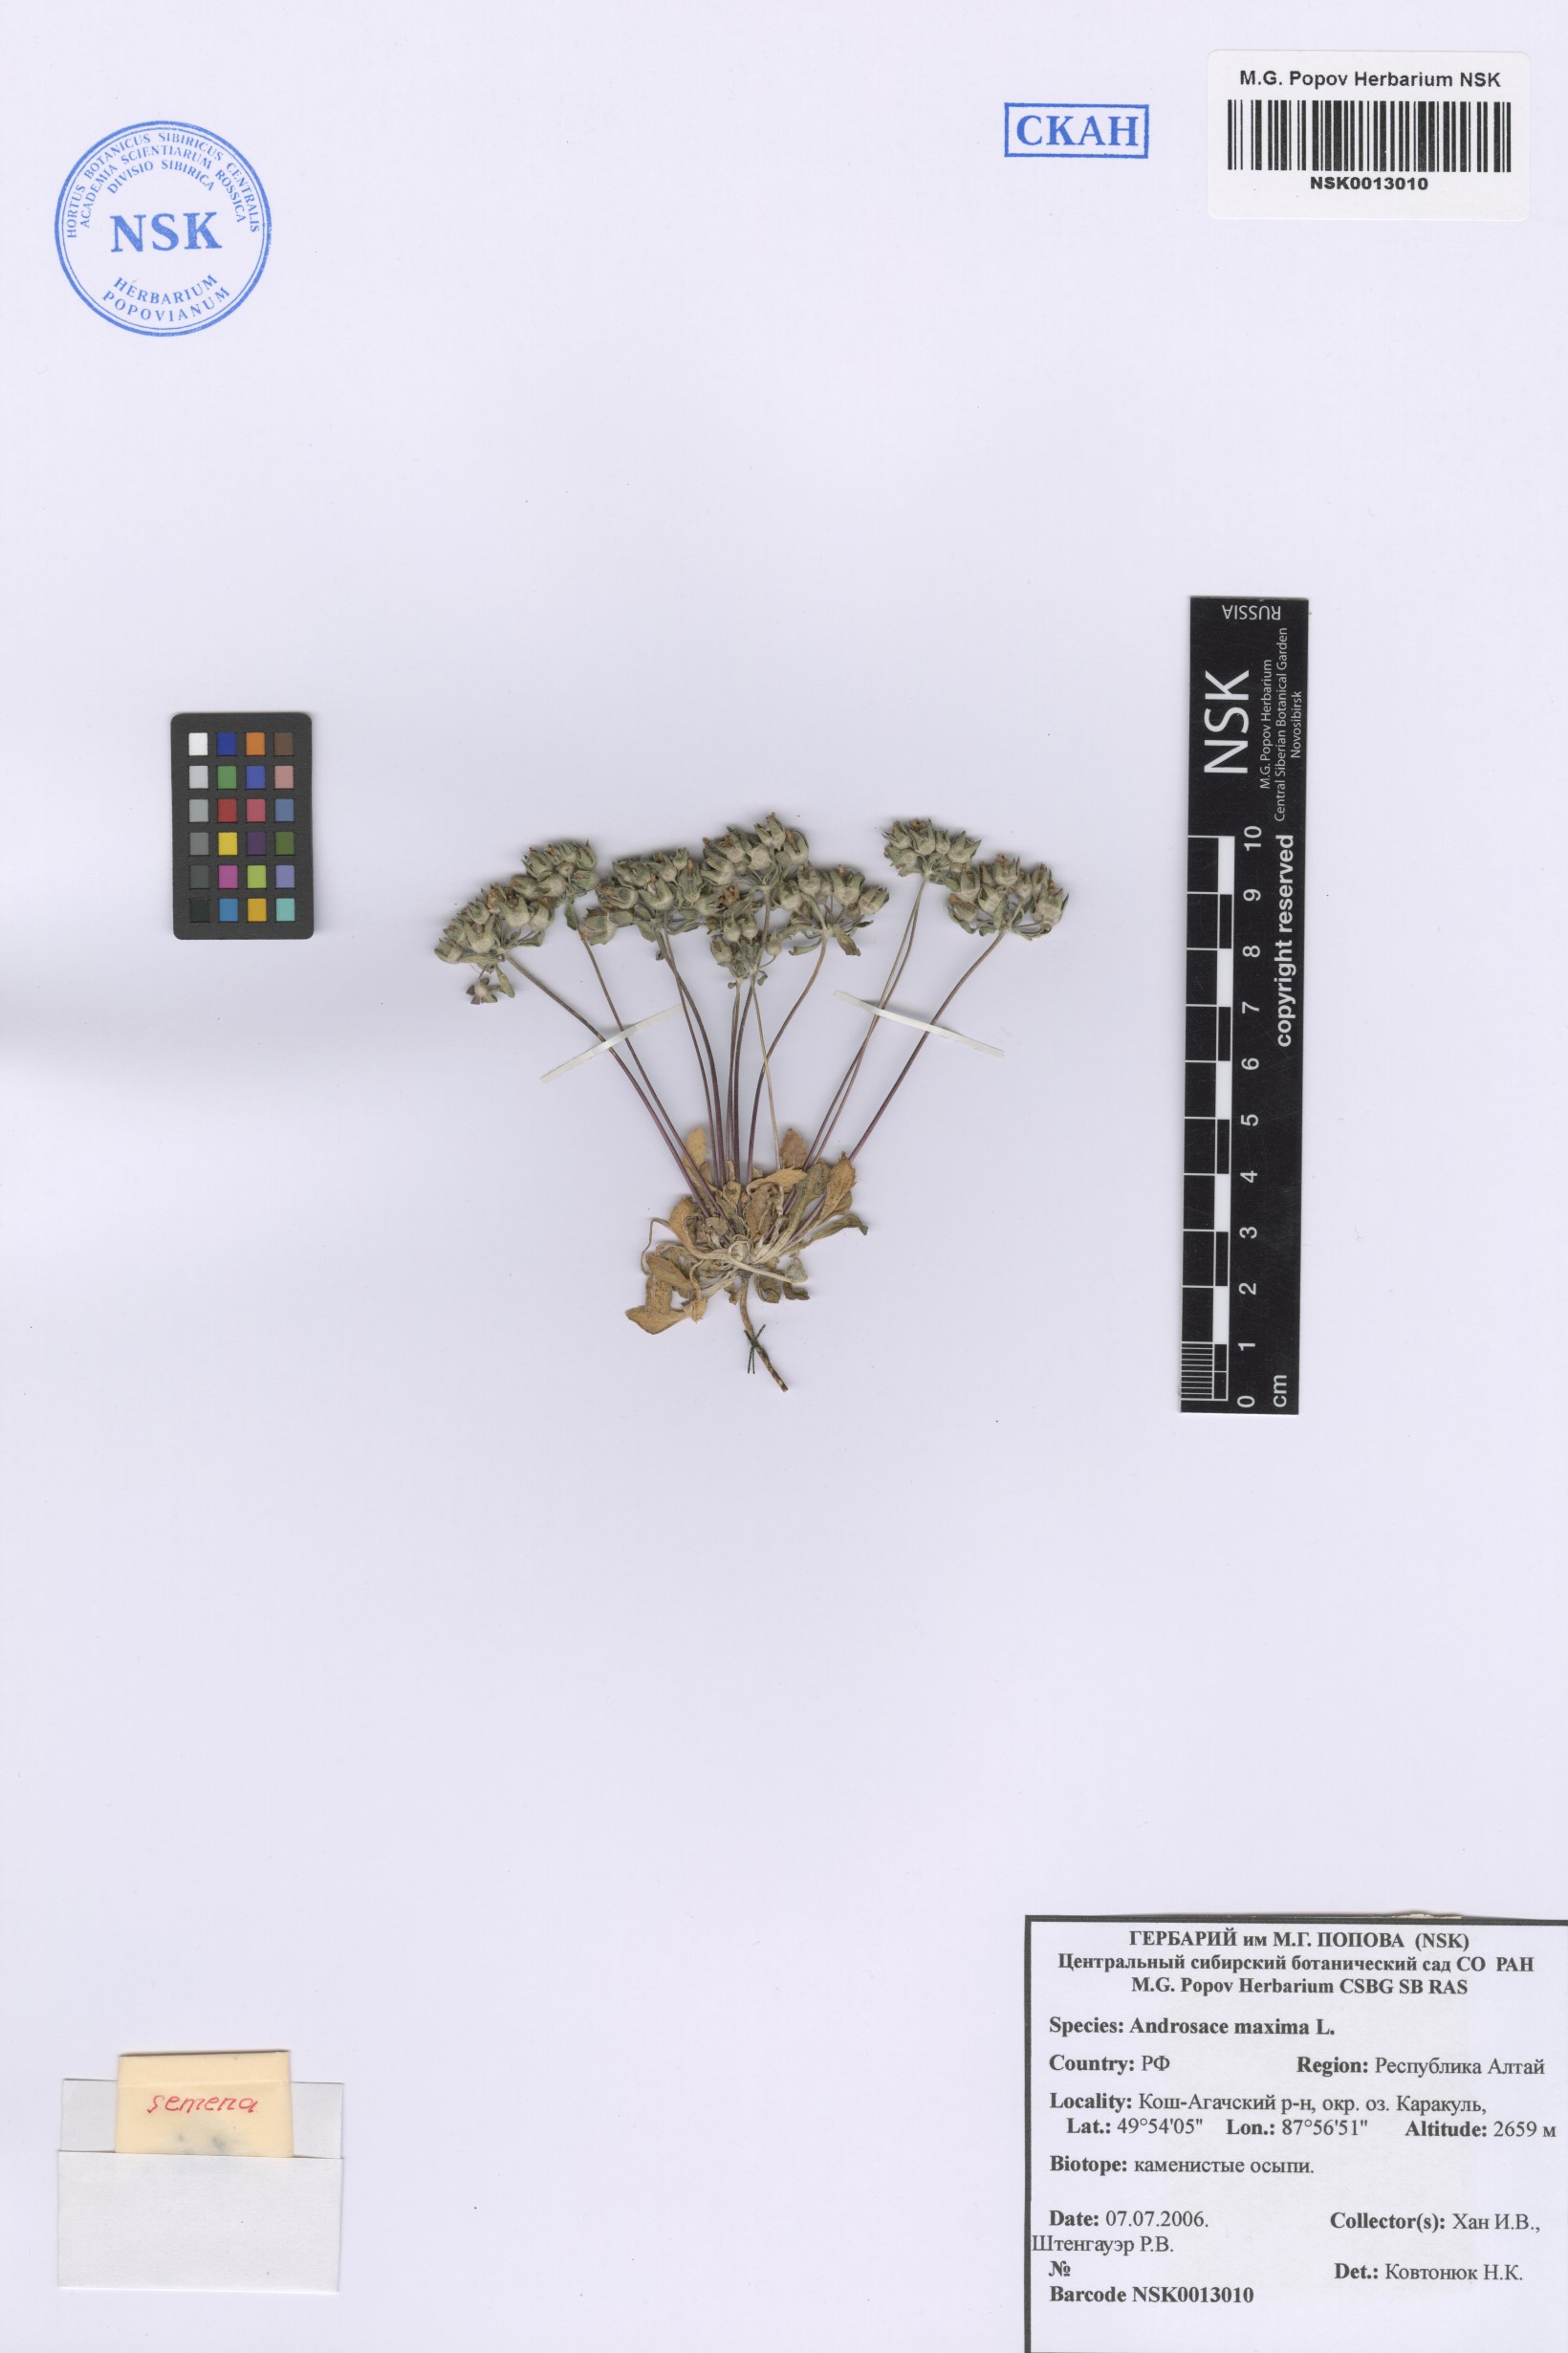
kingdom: Plantae
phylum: Tracheophyta
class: Magnoliopsida
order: Ericales
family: Primulaceae
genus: Androsace
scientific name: Androsace maxima
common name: Annual androsace
